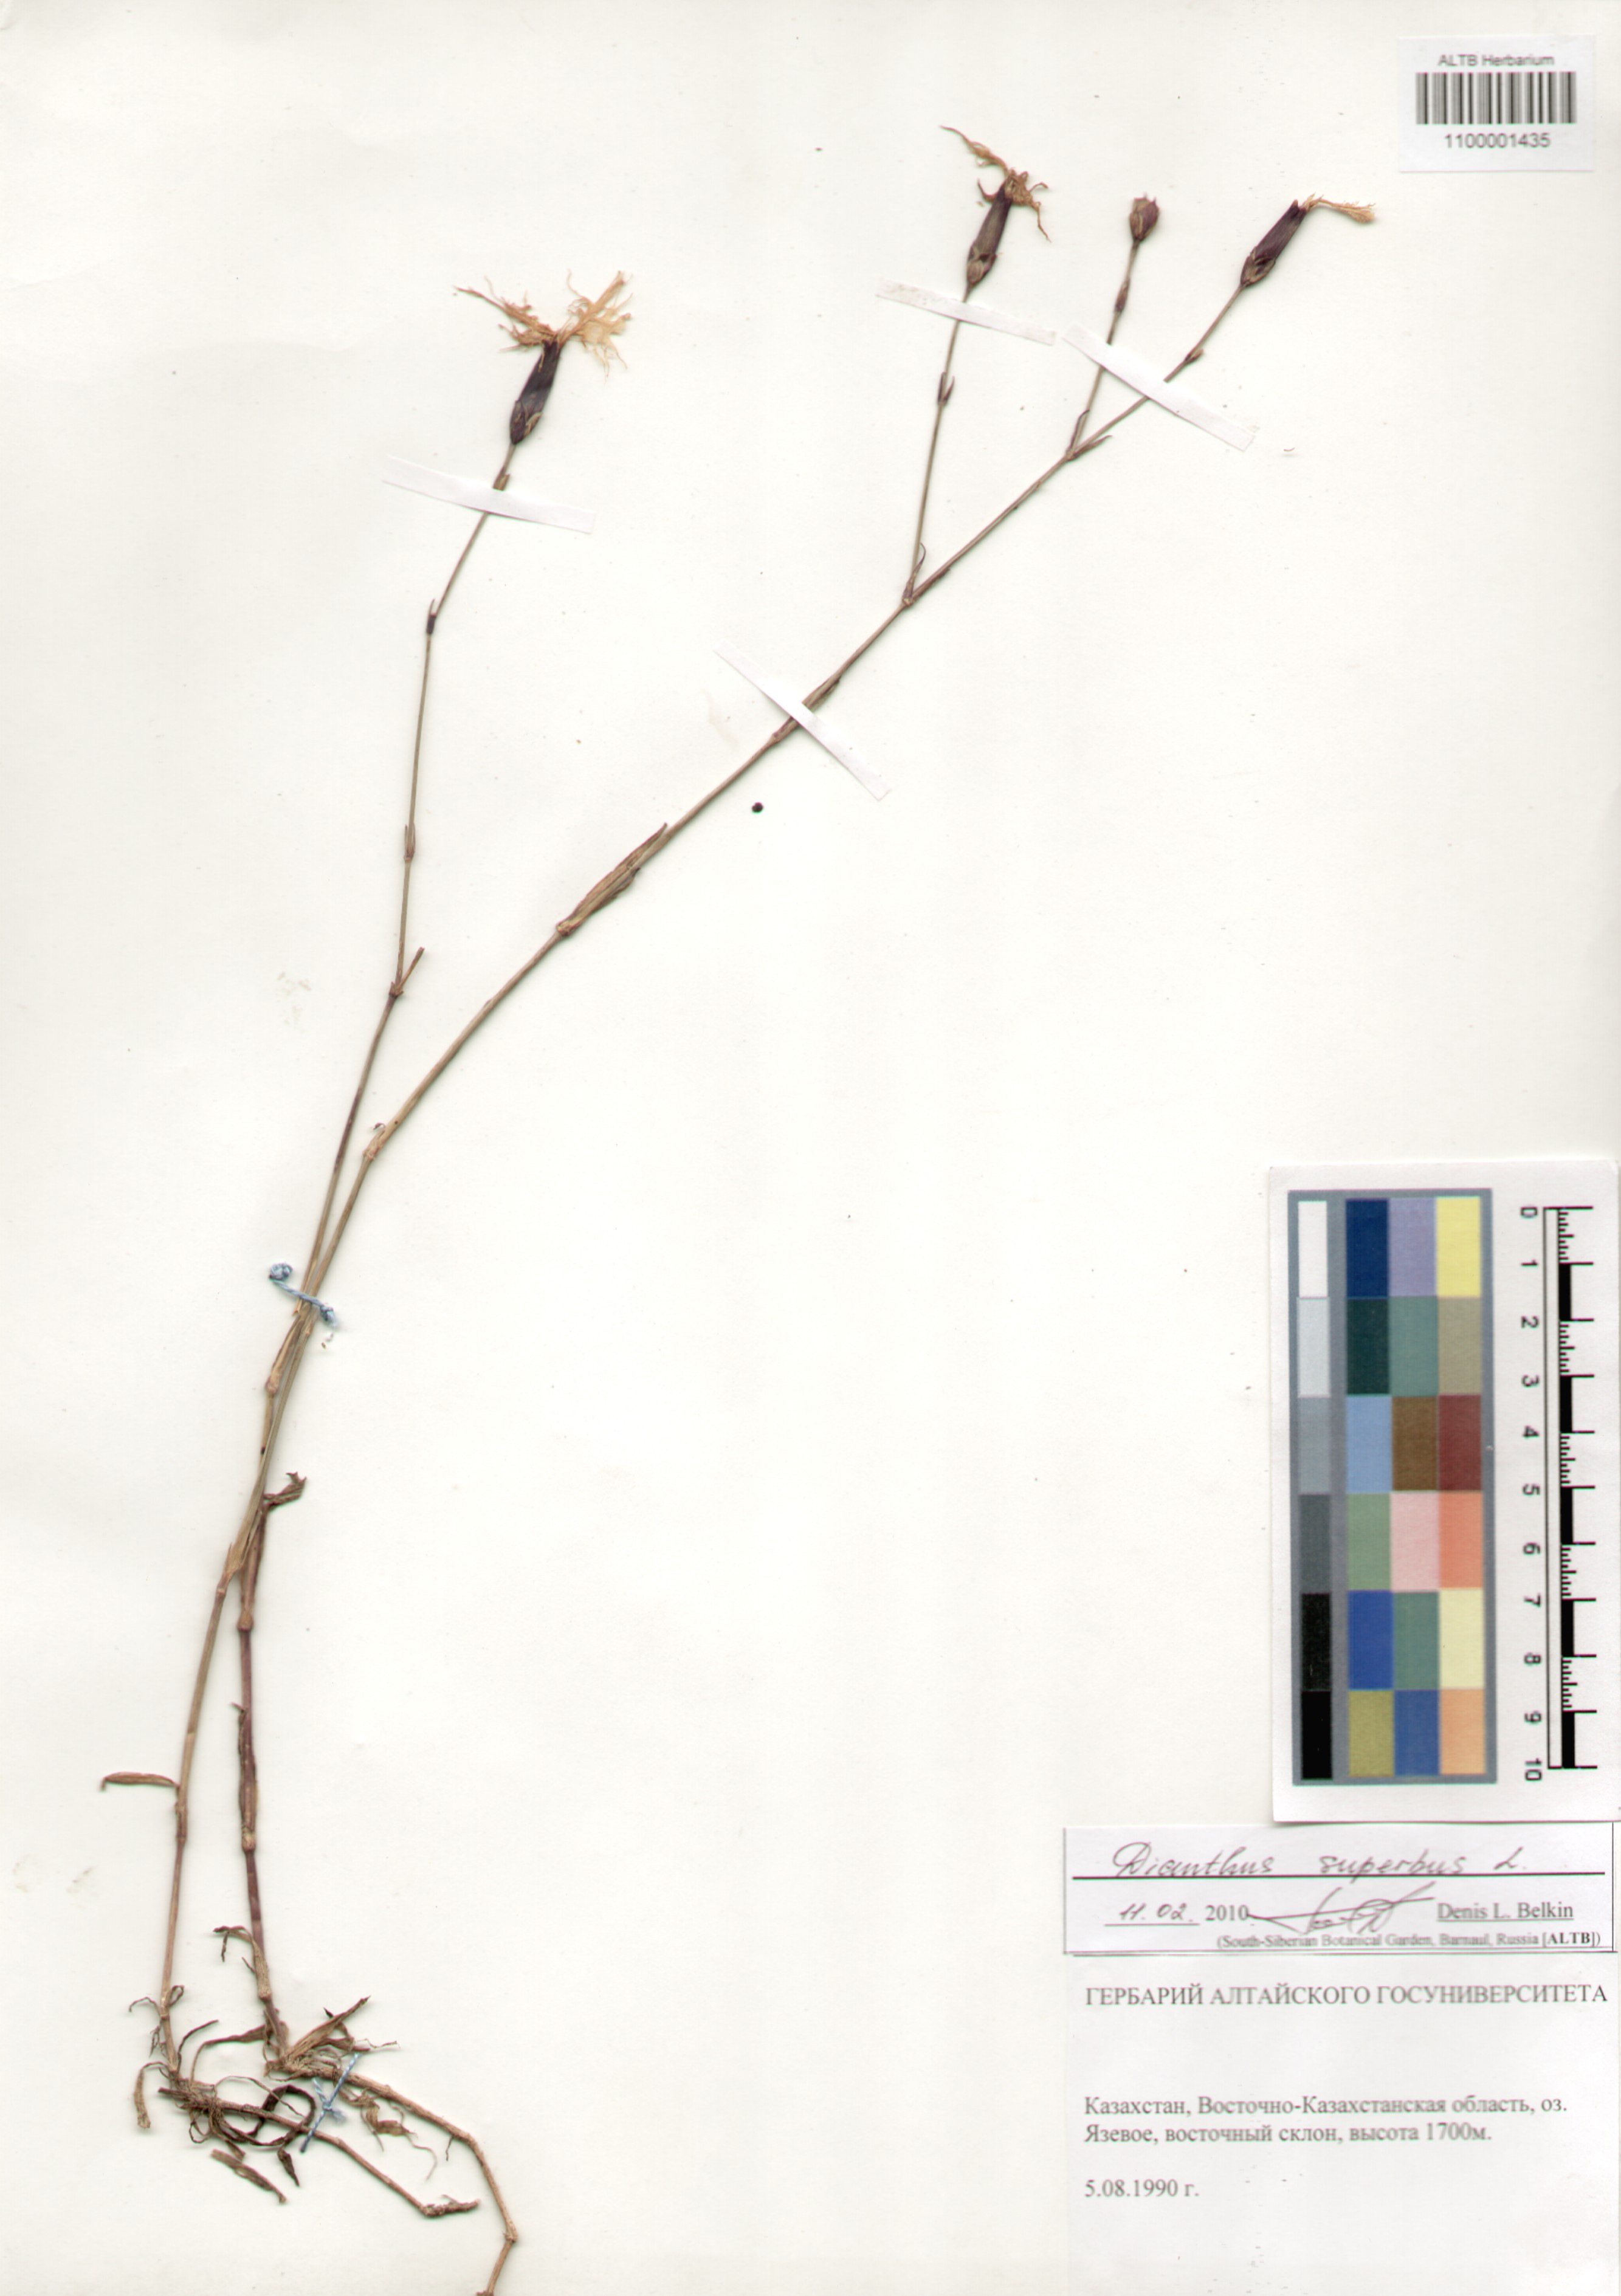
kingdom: Plantae
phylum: Tracheophyta
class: Magnoliopsida
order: Caryophyllales
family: Caryophyllaceae
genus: Dianthus
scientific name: Dianthus superbus
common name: Fringed pink
